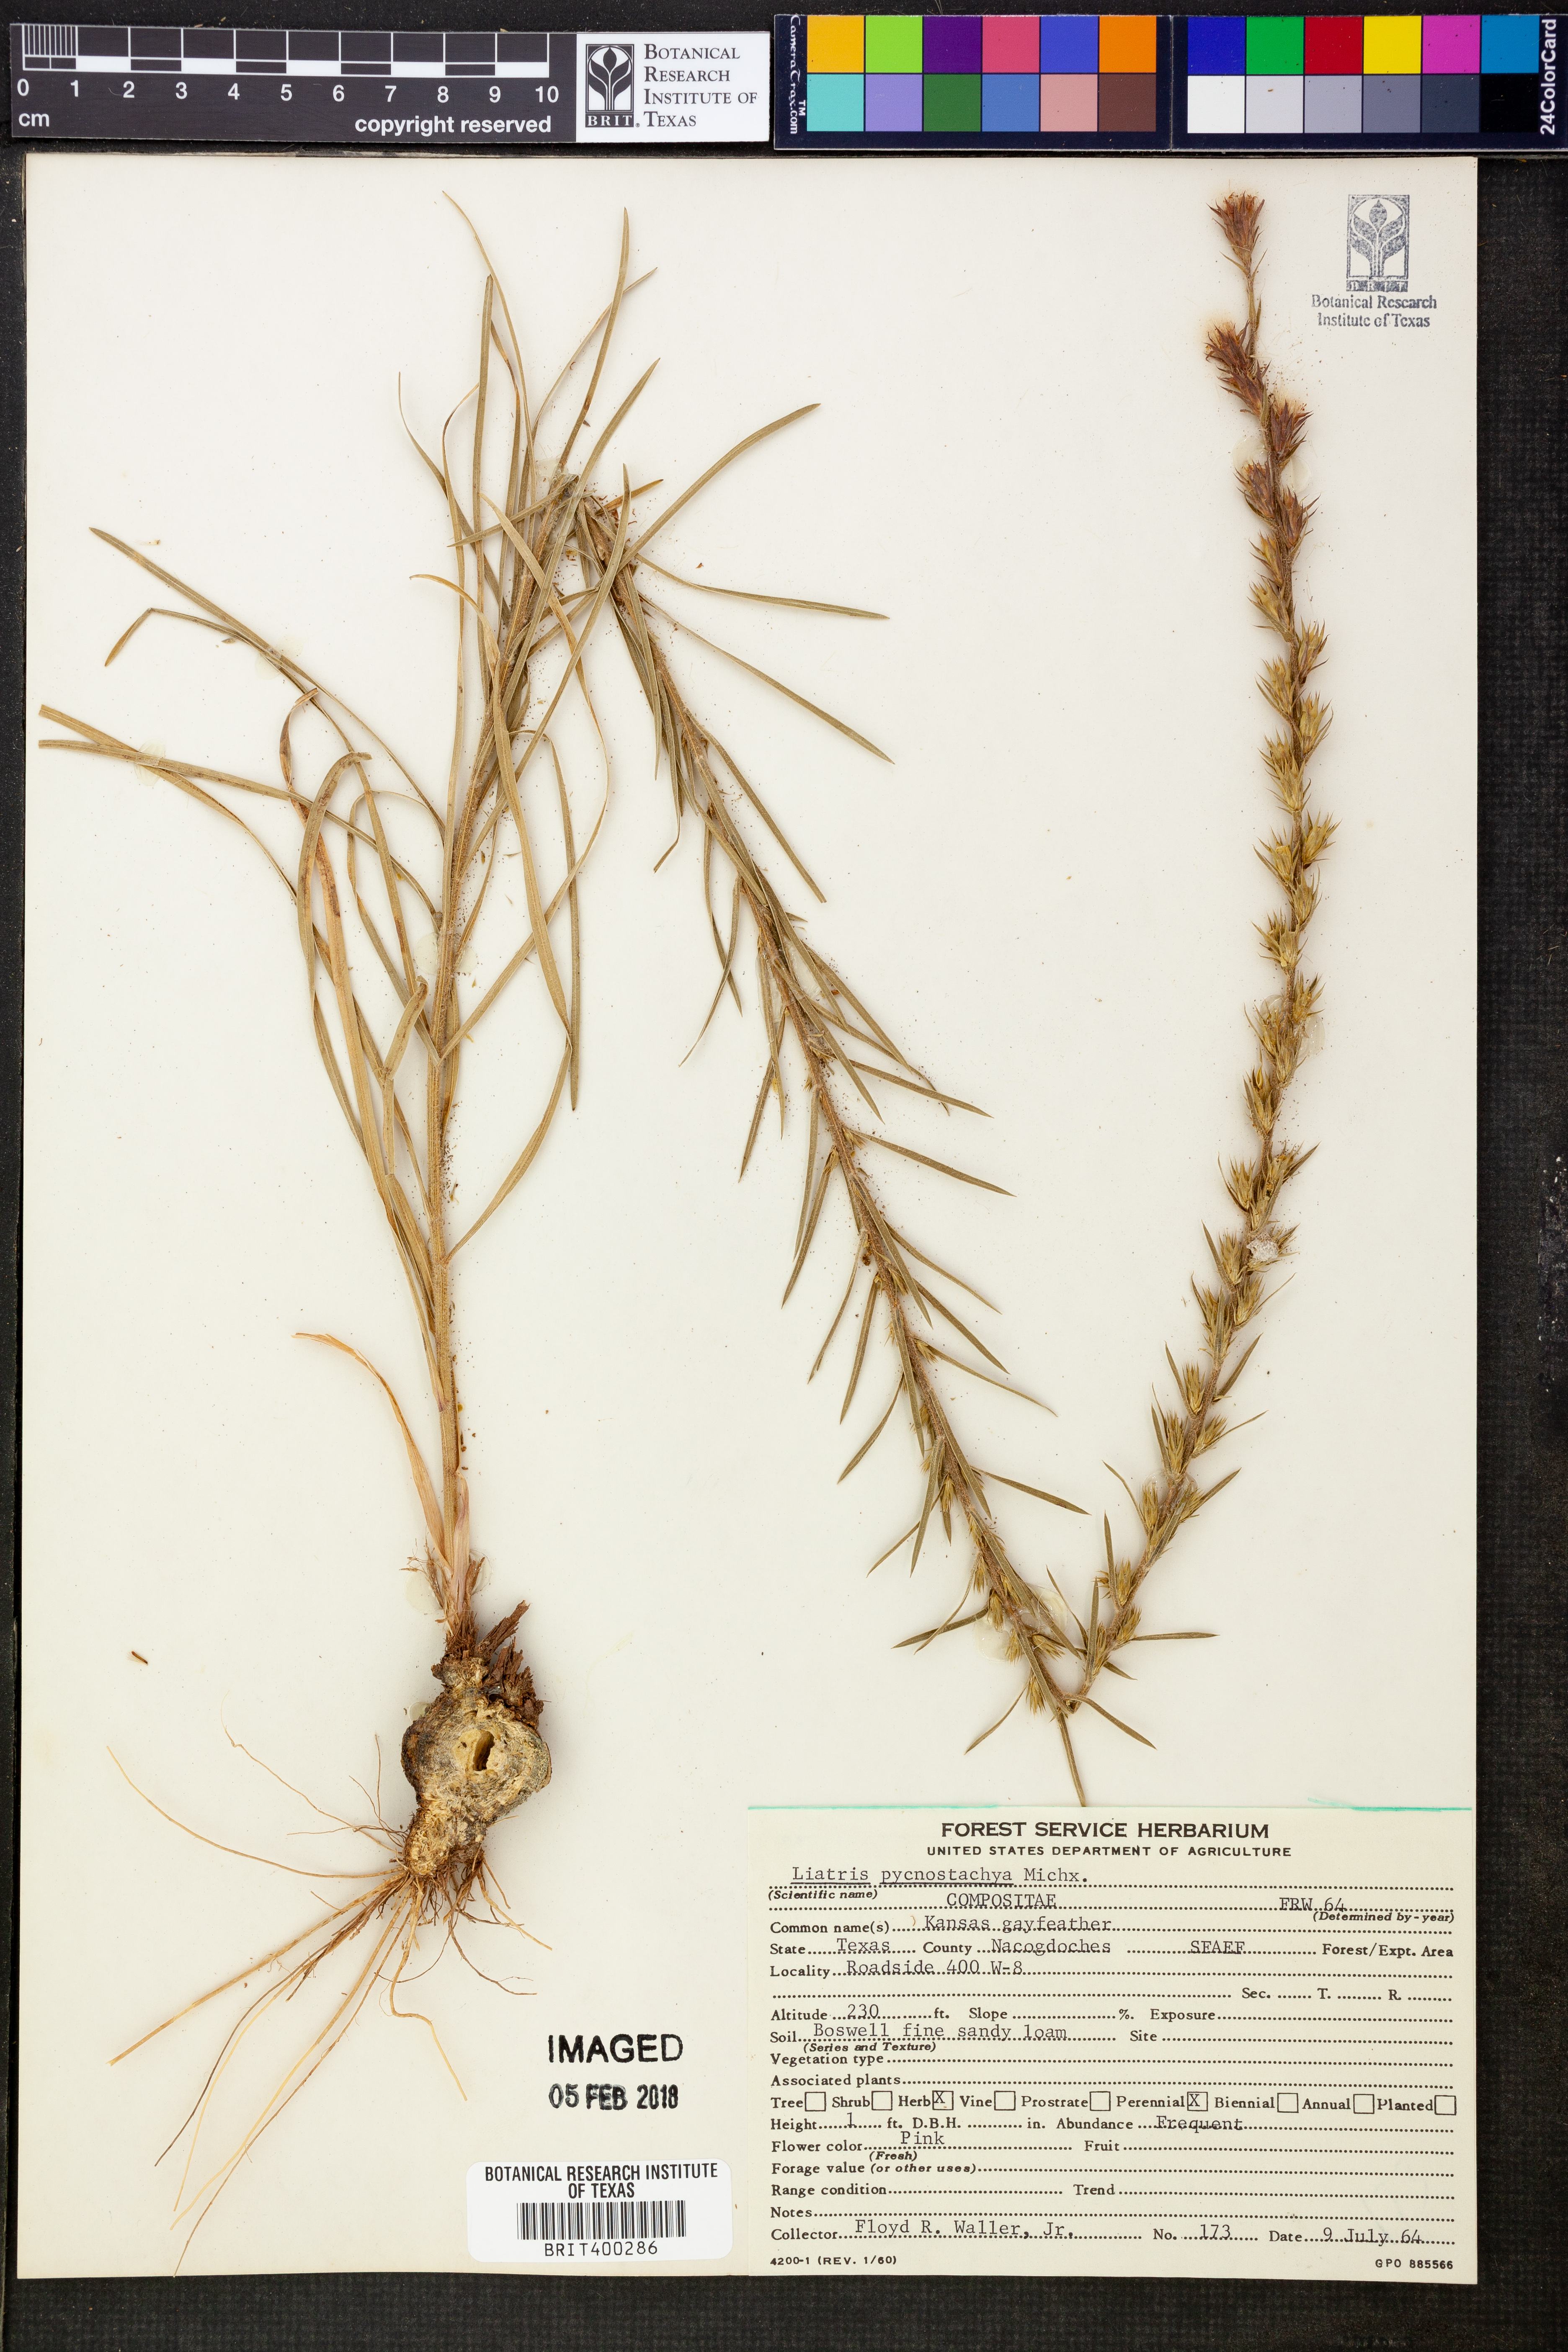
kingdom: Plantae
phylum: Tracheophyta
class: Magnoliopsida
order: Asterales
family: Asteraceae
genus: Liatris
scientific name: Liatris pycnostachya
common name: Cattail gayfeather
